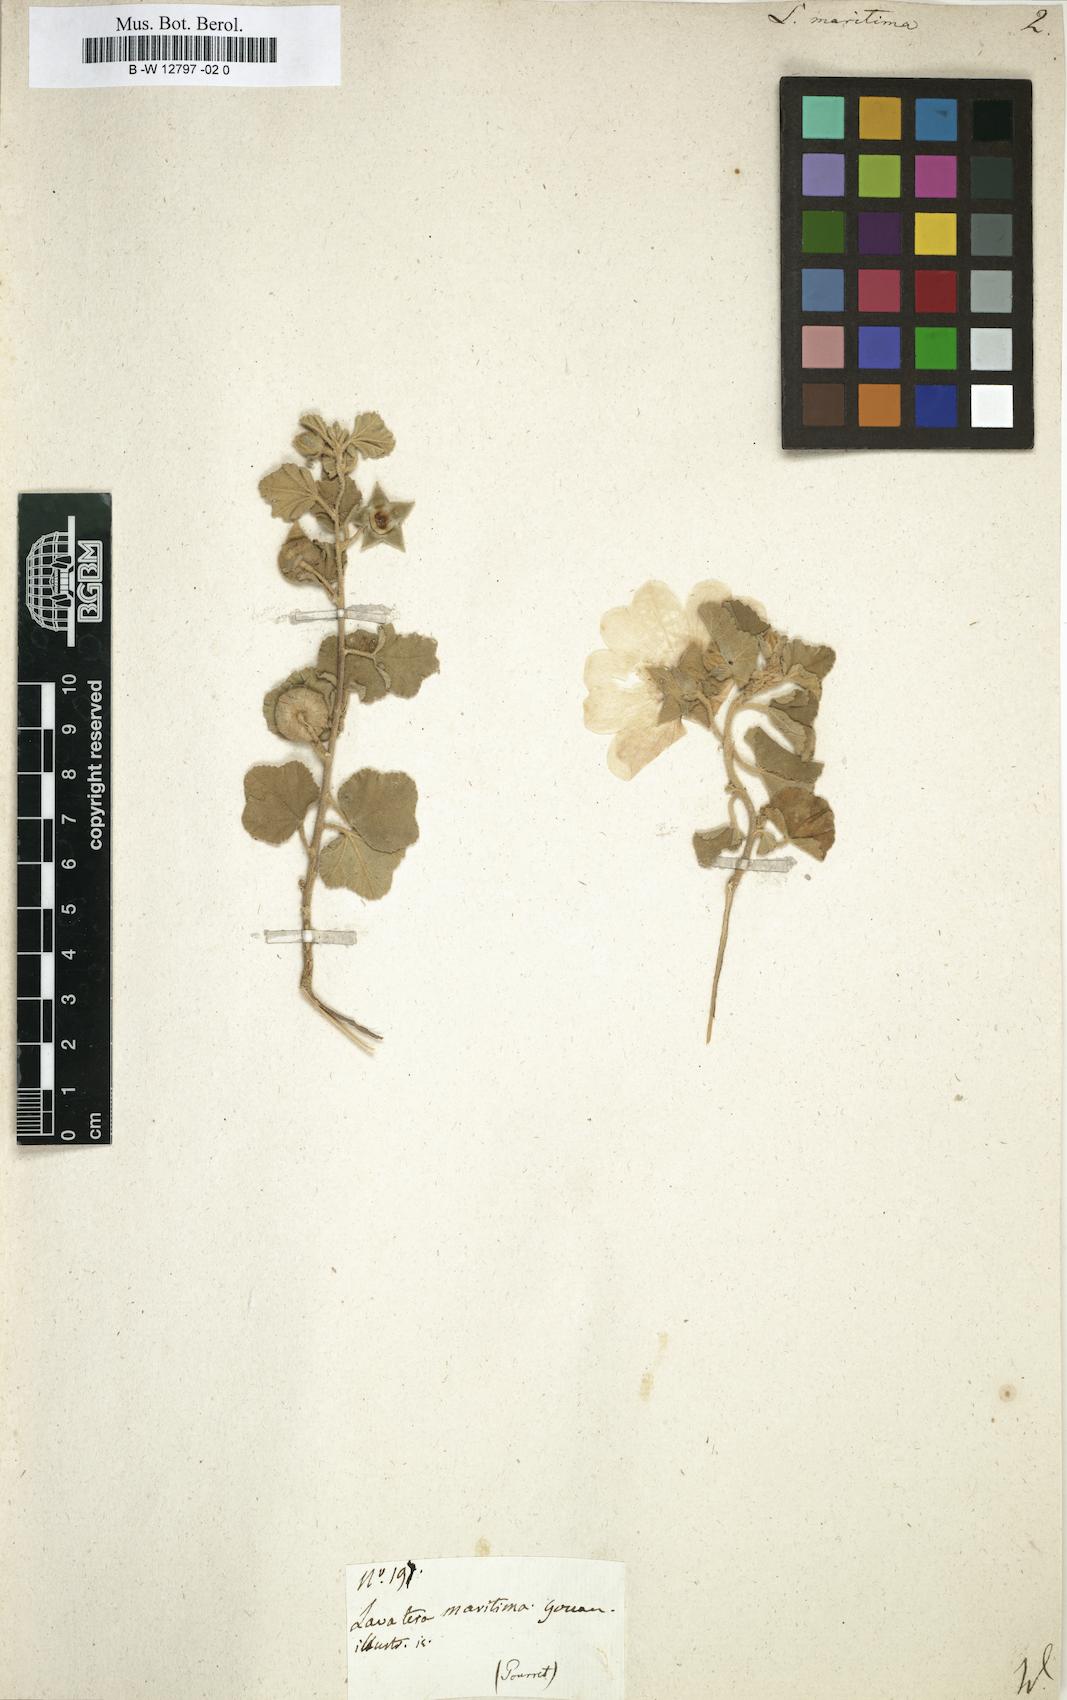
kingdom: Plantae
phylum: Tracheophyta
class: Magnoliopsida
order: Malvales
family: Malvaceae
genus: Malva
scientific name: Malva subovata
